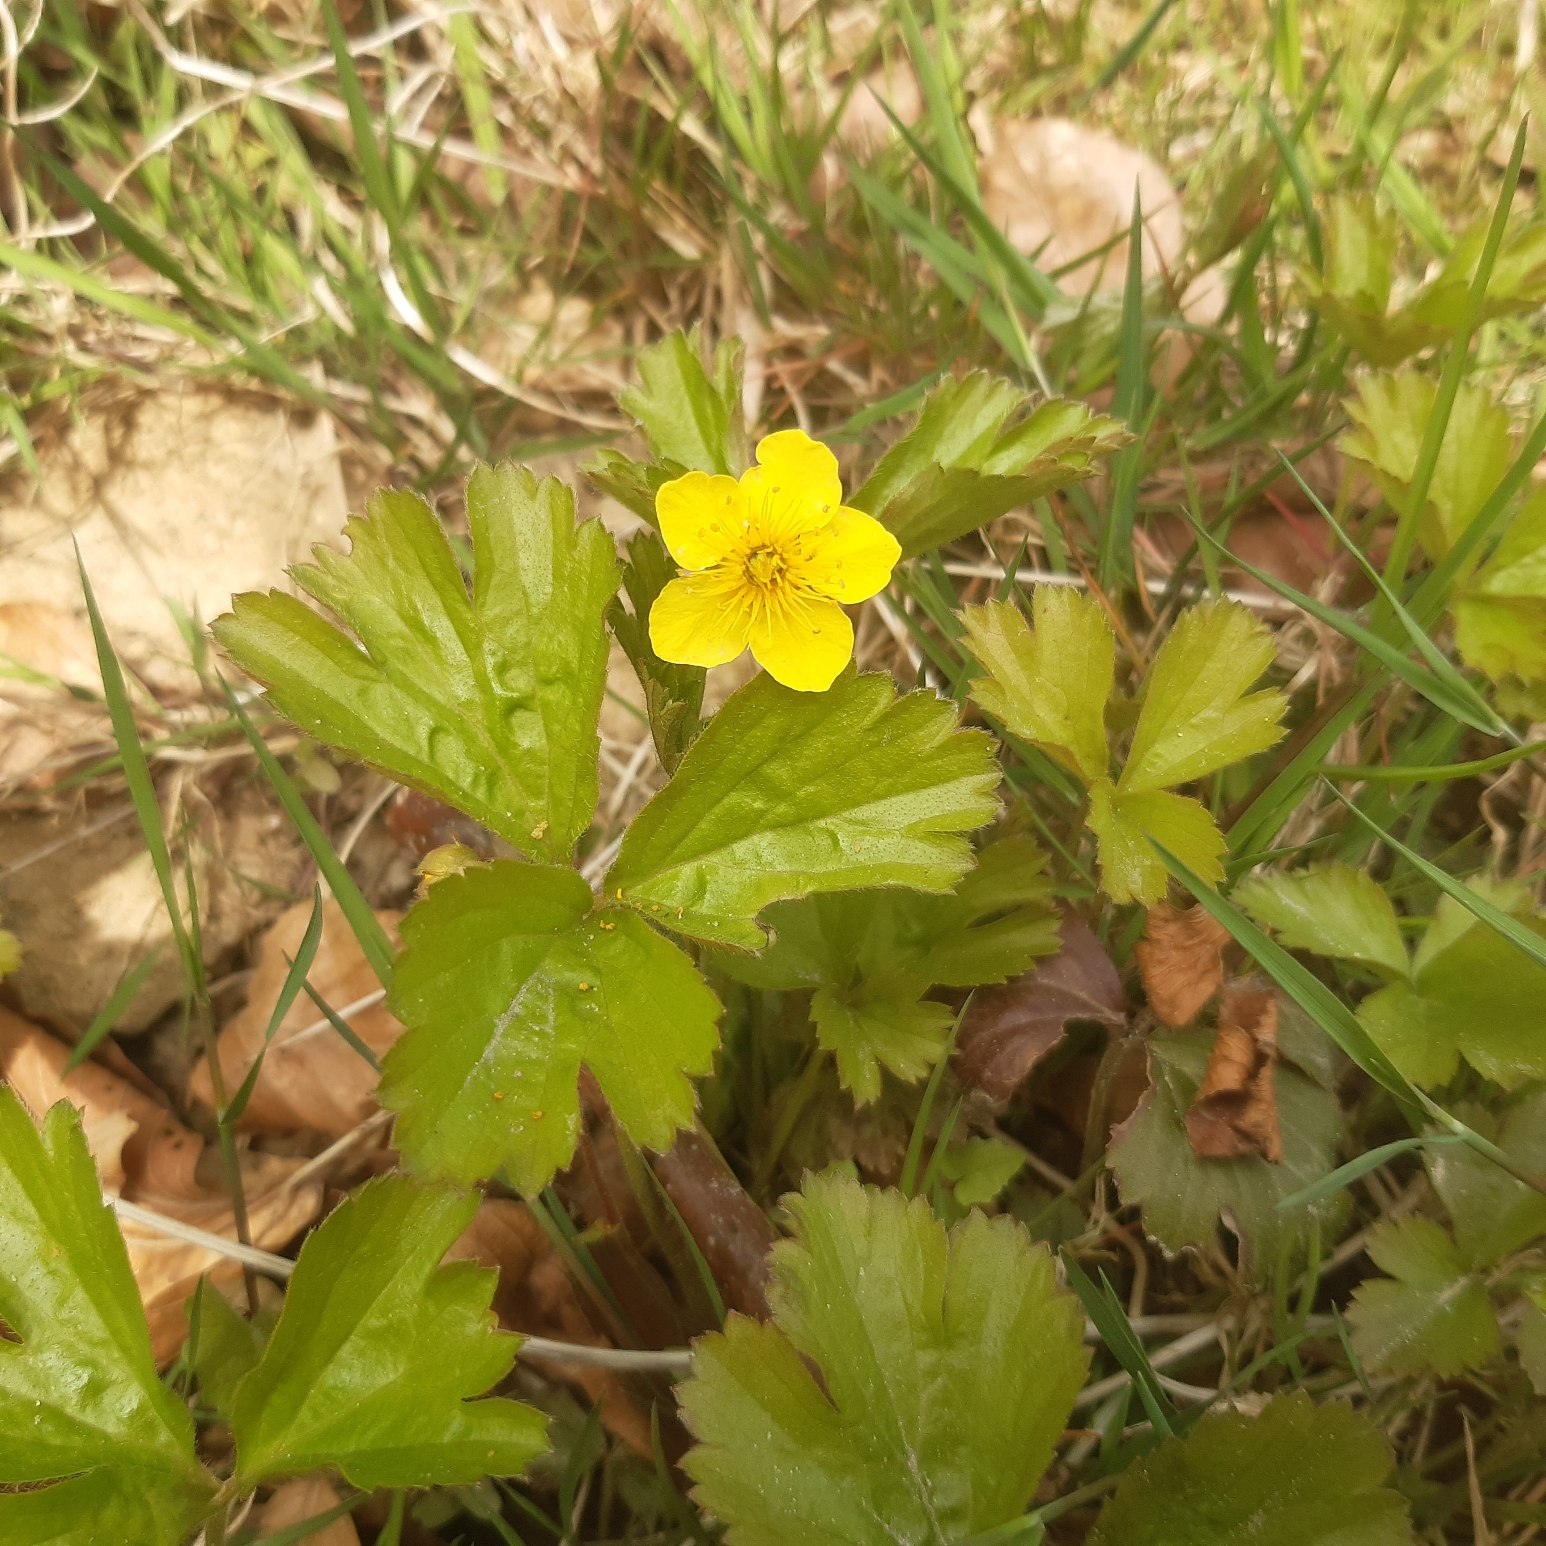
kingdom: Plantae
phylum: Tracheophyta
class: Magnoliopsida
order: Rosales
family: Rosaceae
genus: Geum
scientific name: Geum ternatum
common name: Krybende guldjordbær
